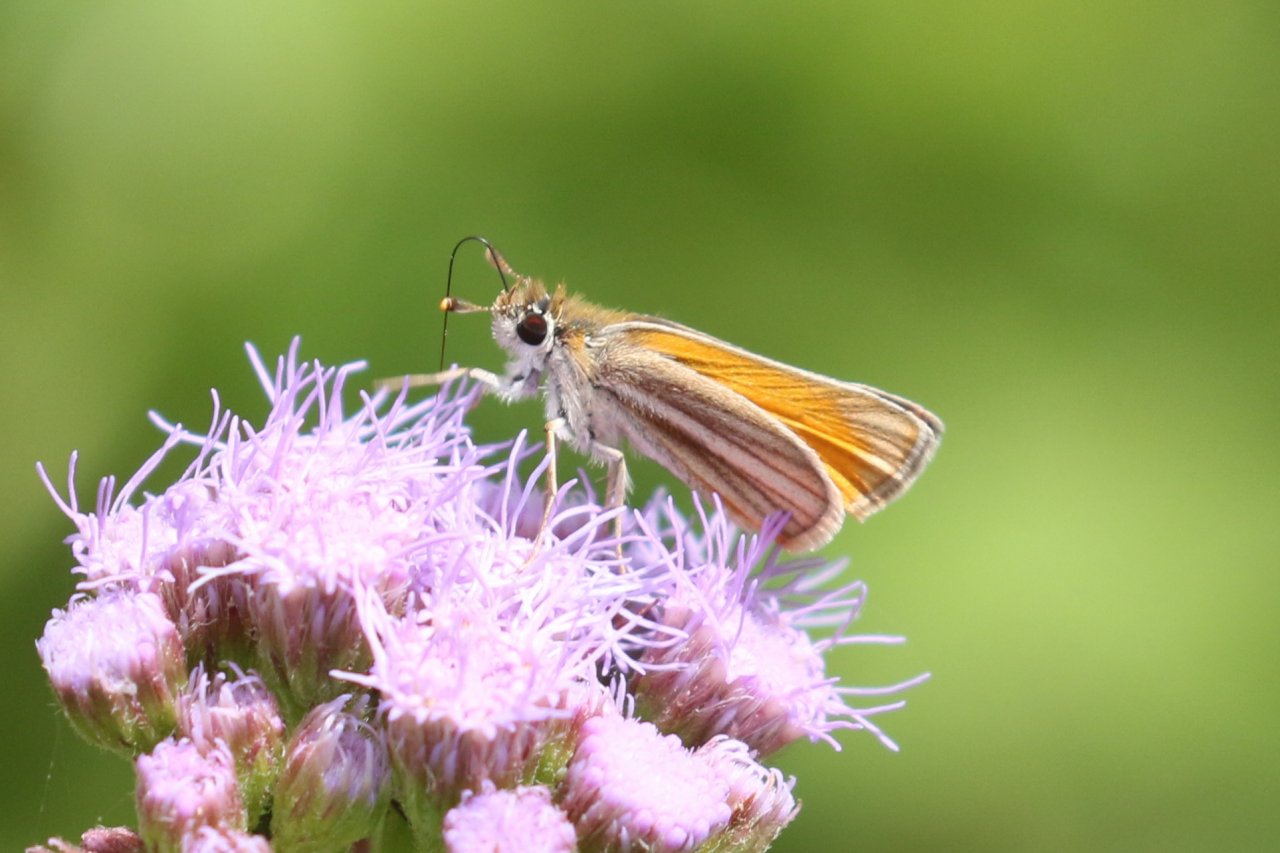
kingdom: Animalia
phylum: Arthropoda
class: Insecta
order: Lepidoptera
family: Hesperiidae
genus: Copaeodes
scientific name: Copaeodes minima
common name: Southern Skipperling
